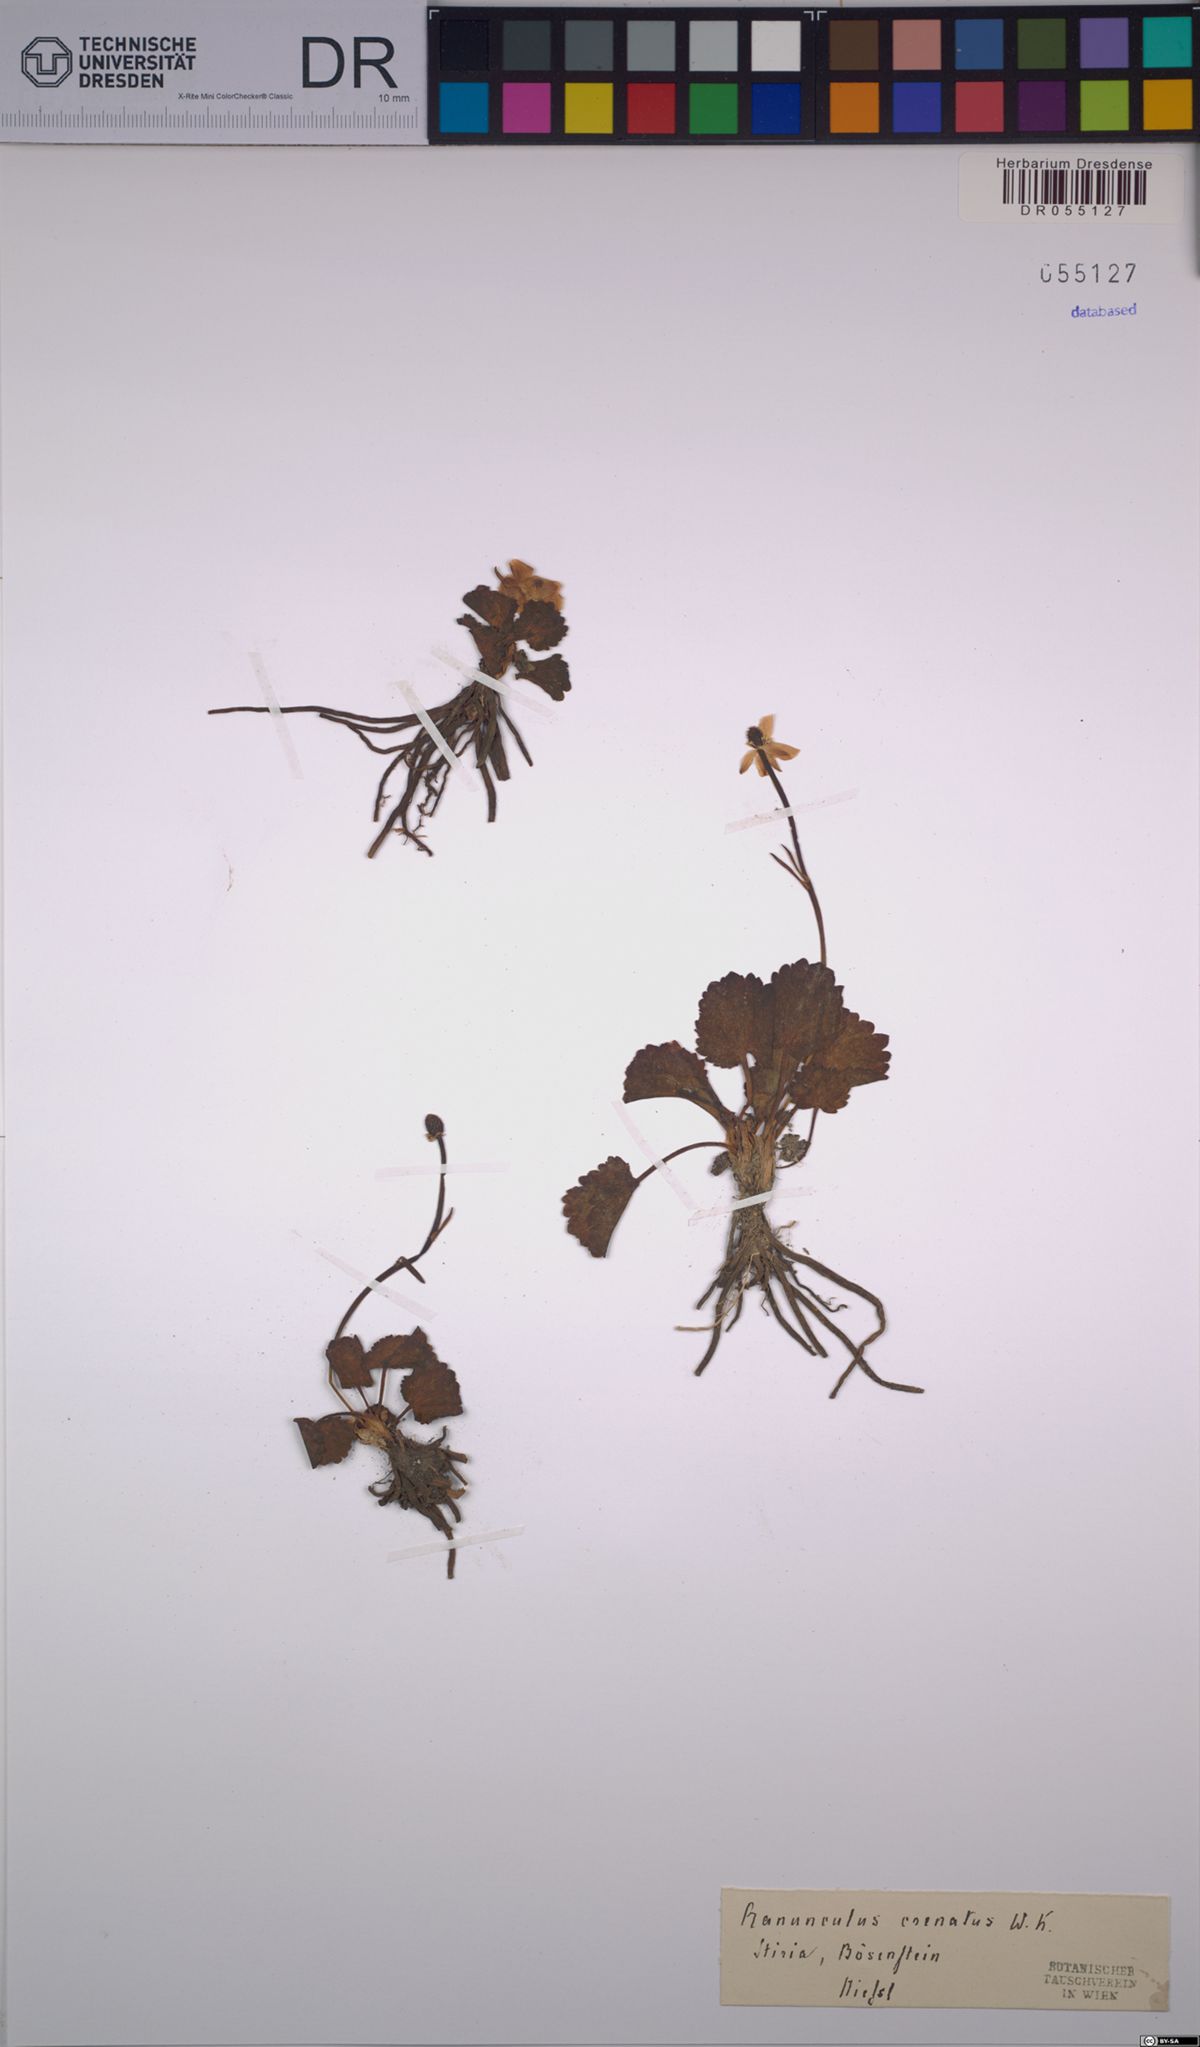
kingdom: Plantae
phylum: Tracheophyta
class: Magnoliopsida
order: Ranunculales
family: Ranunculaceae
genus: Ranunculus
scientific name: Ranunculus crenatus
